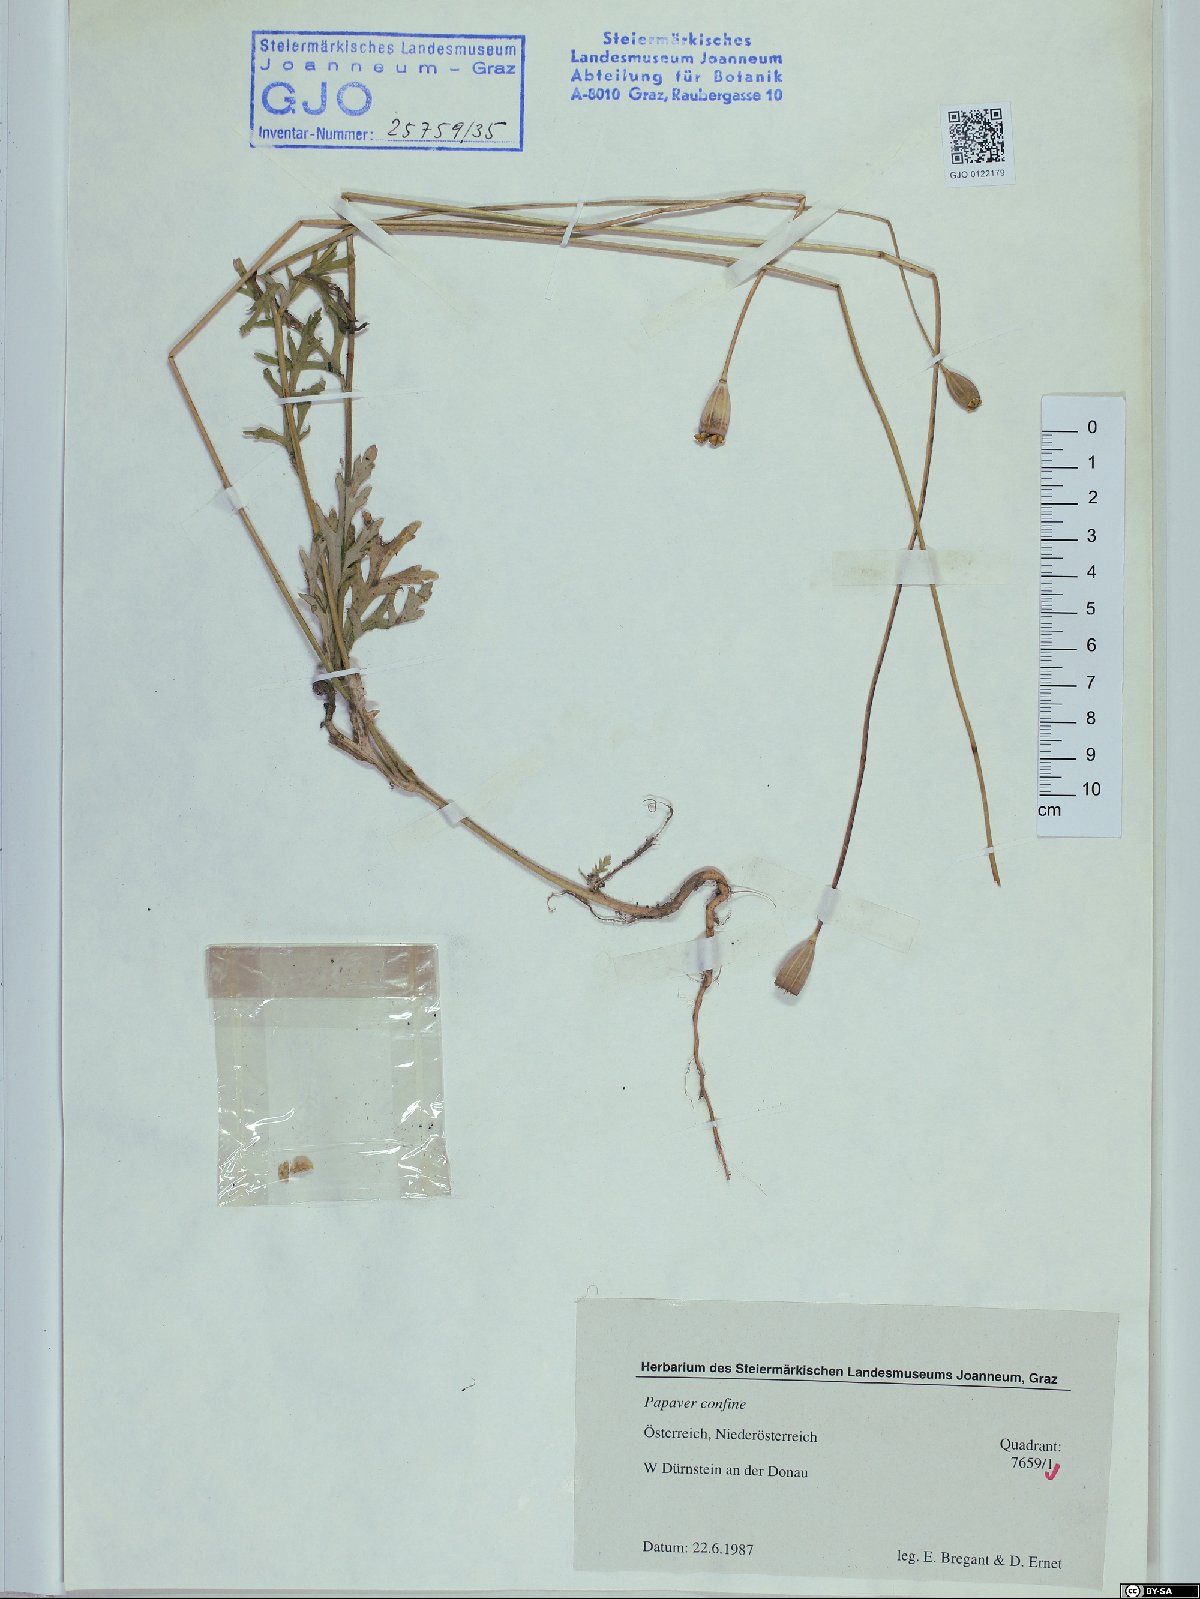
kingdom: Plantae
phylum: Tracheophyta
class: Magnoliopsida
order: Ranunculales
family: Papaveraceae
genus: Papaver
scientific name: Papaver confine
